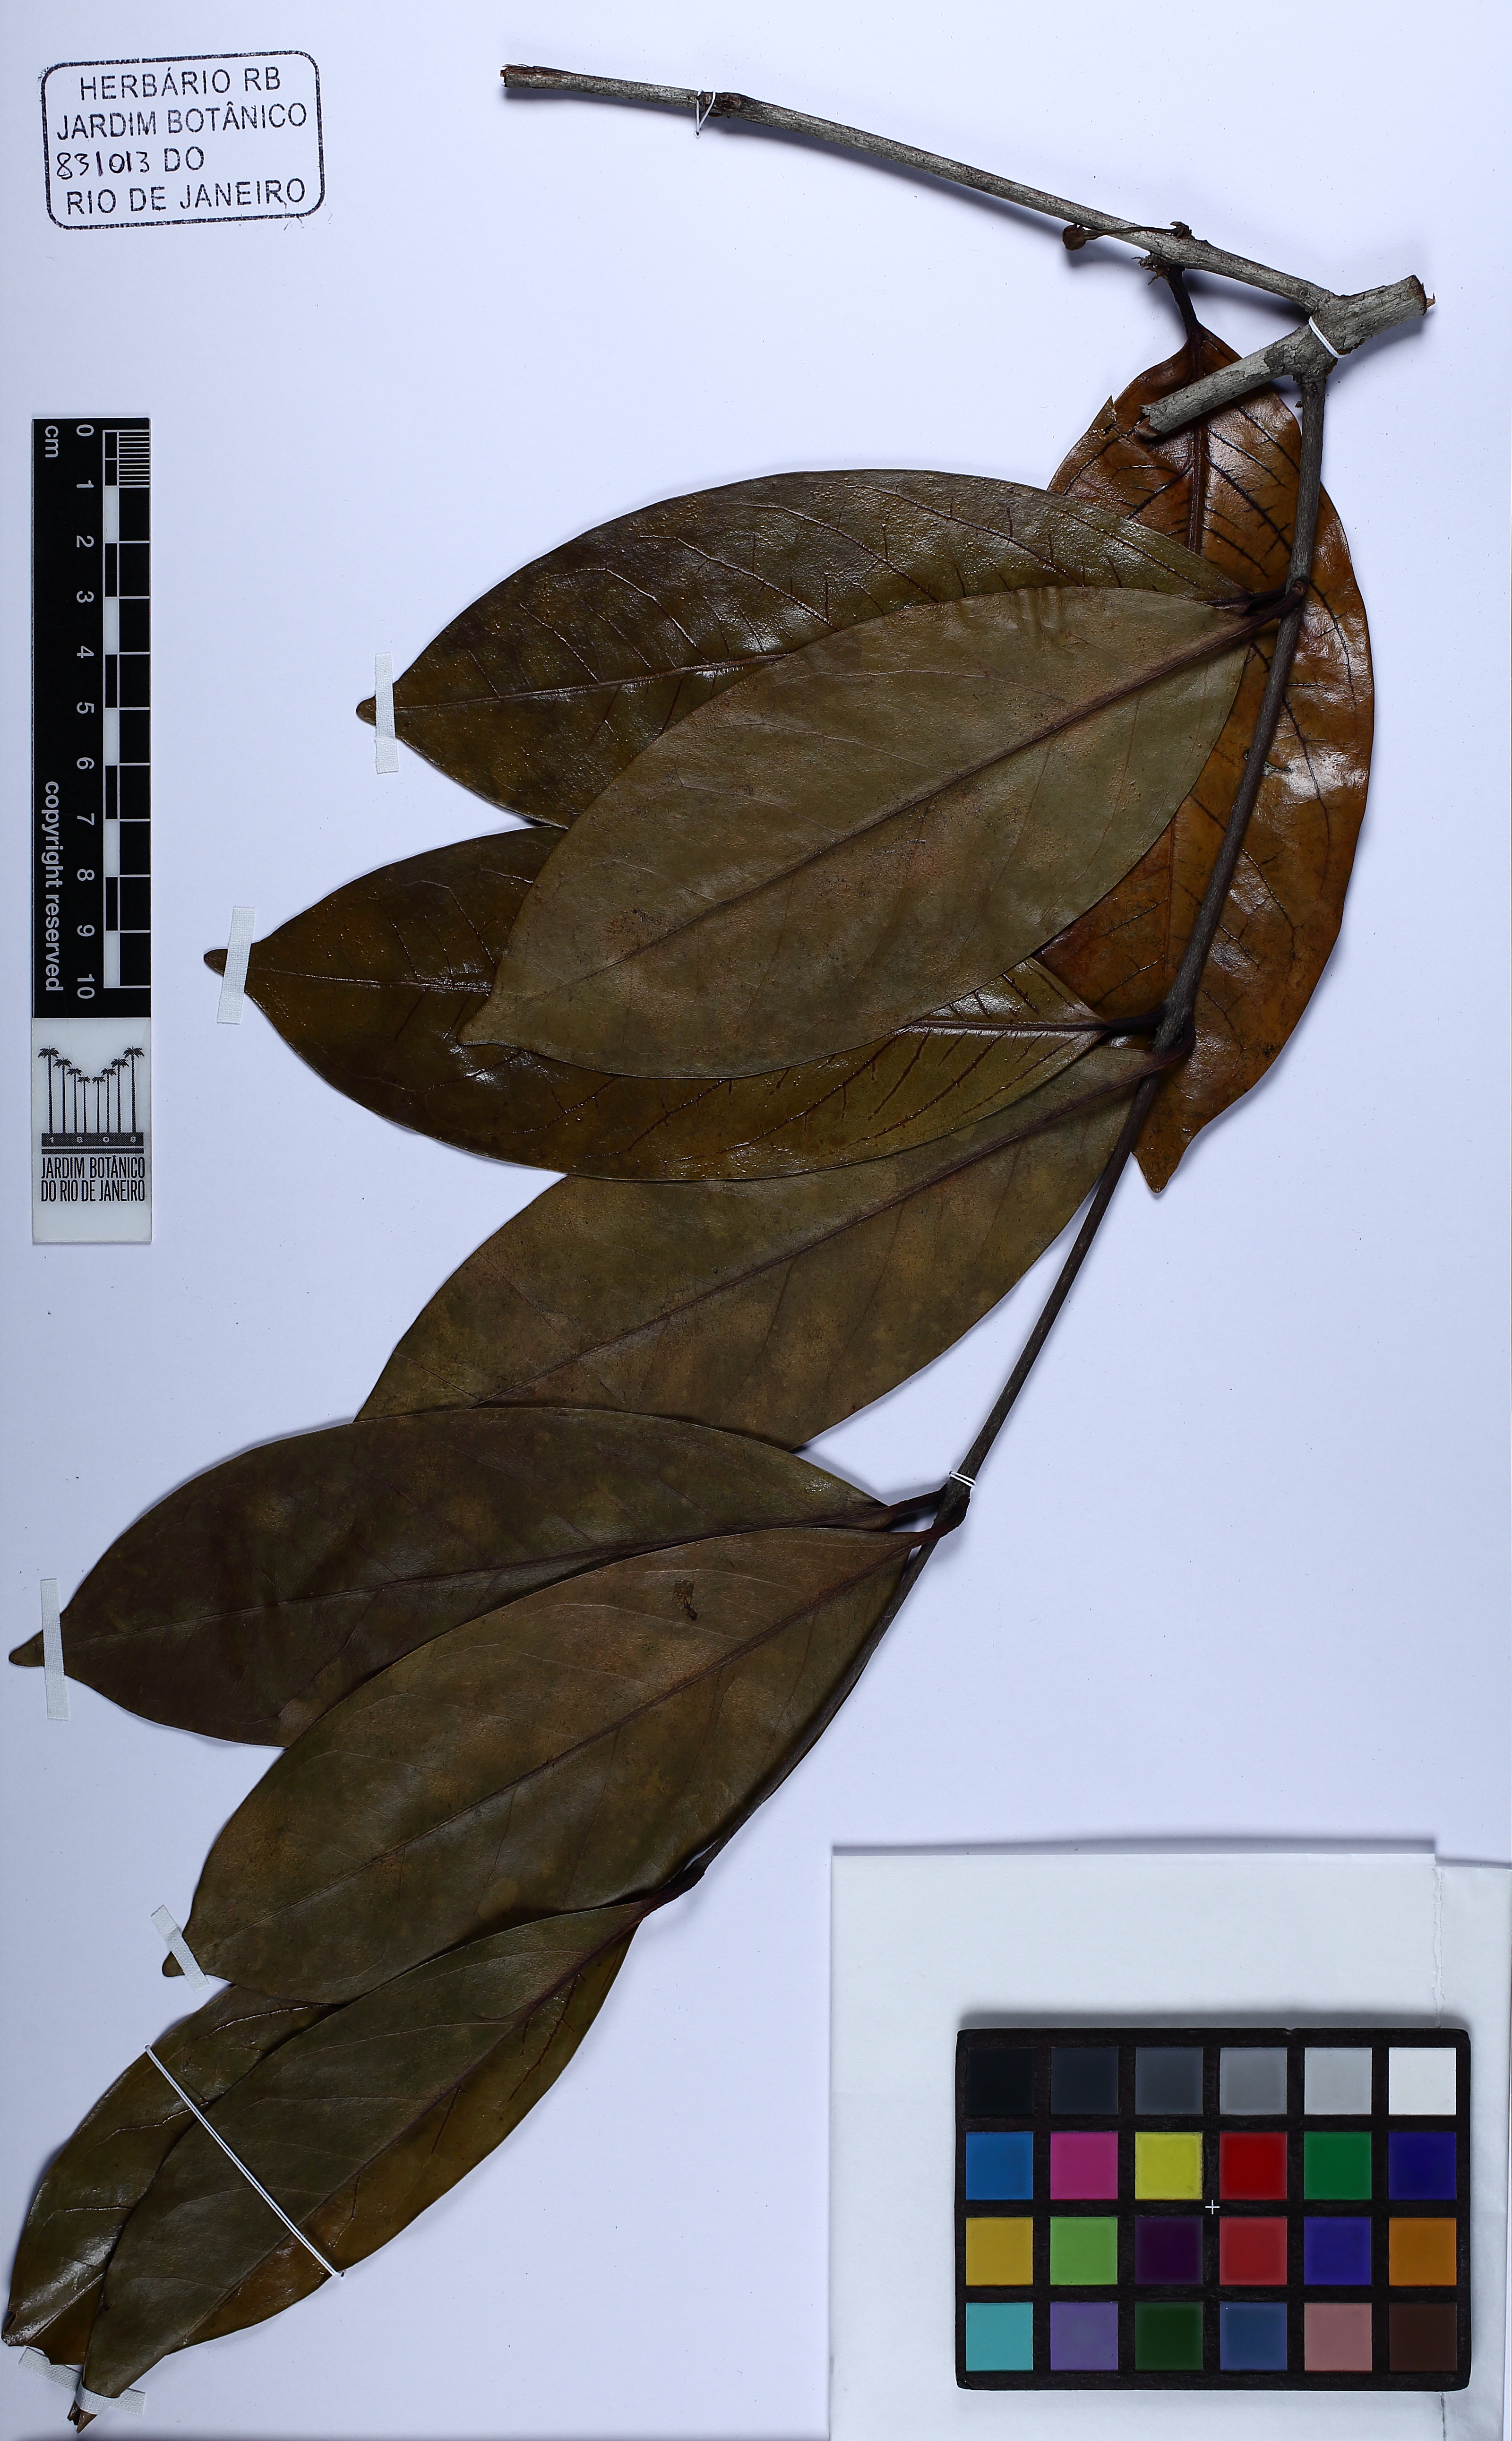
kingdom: Plantae
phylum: Tracheophyta
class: Magnoliopsida
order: Myrtales
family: Myrtaceae
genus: Eugenia
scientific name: Eugenia
